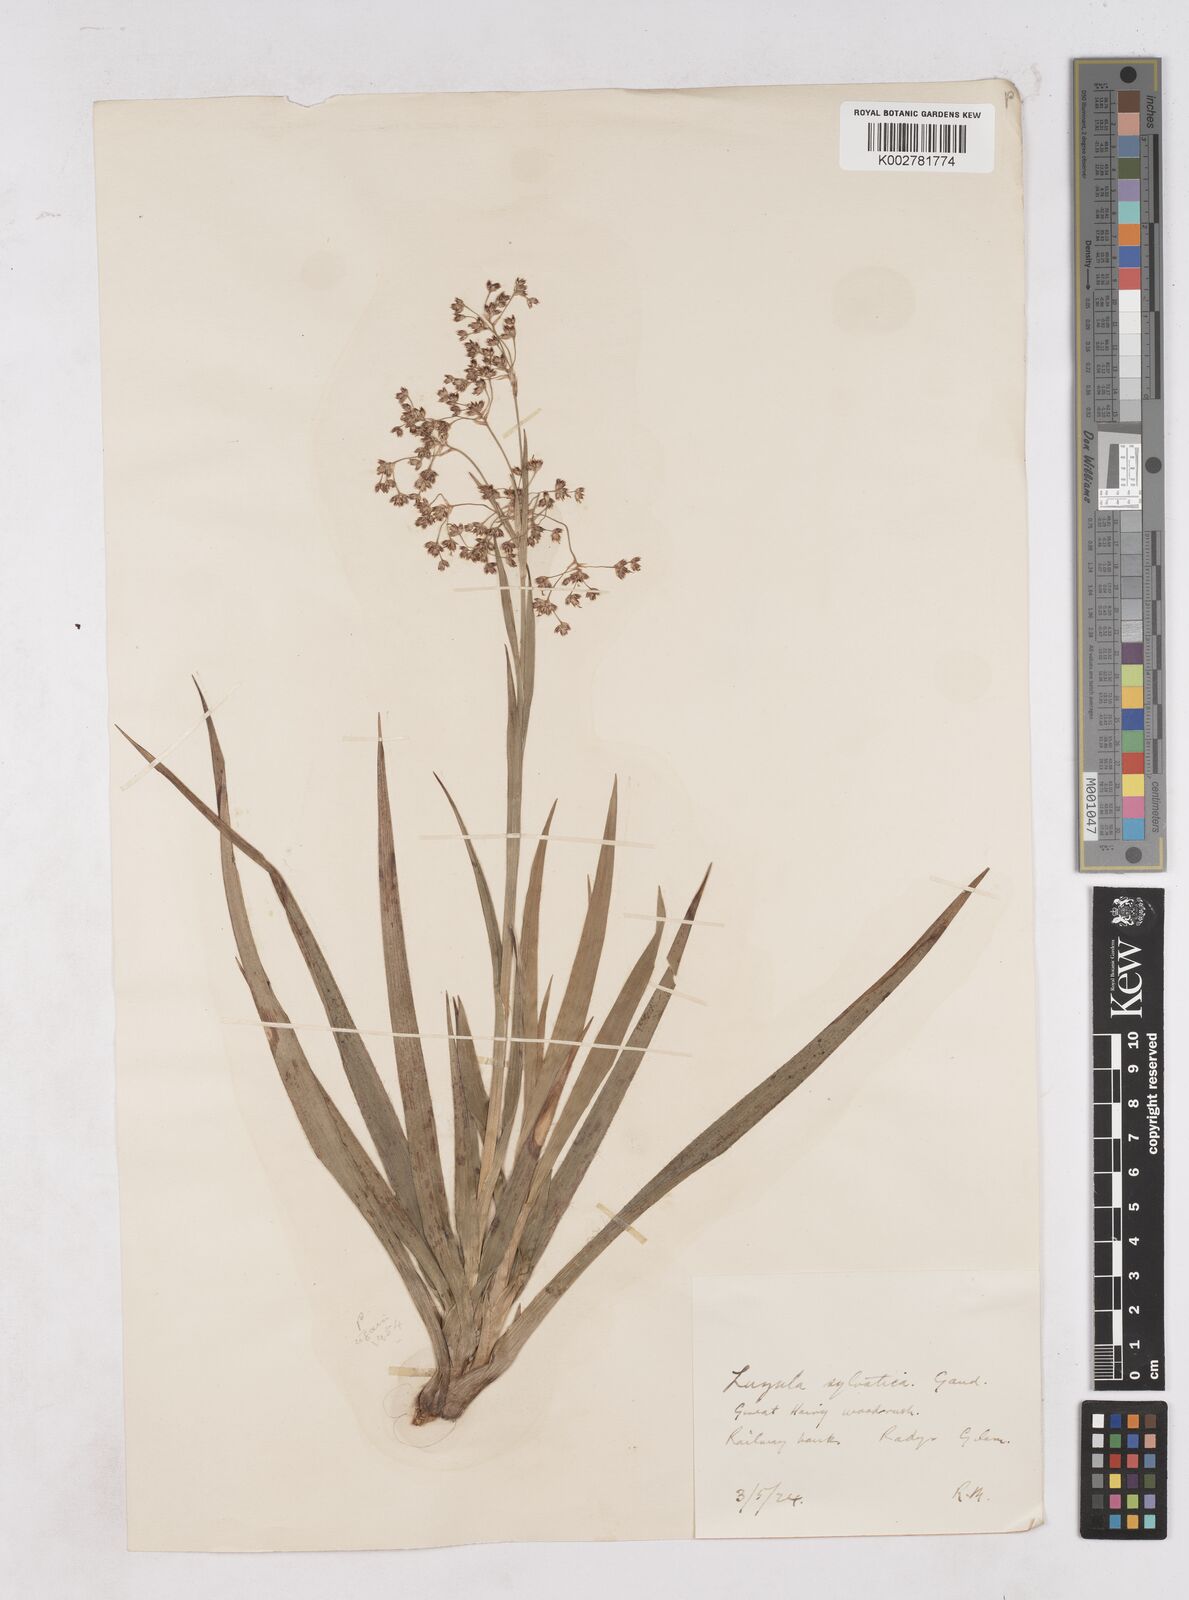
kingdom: Plantae
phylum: Tracheophyta
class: Liliopsida
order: Poales
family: Juncaceae
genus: Luzula
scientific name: Luzula sylvatica
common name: Great wood-rush
